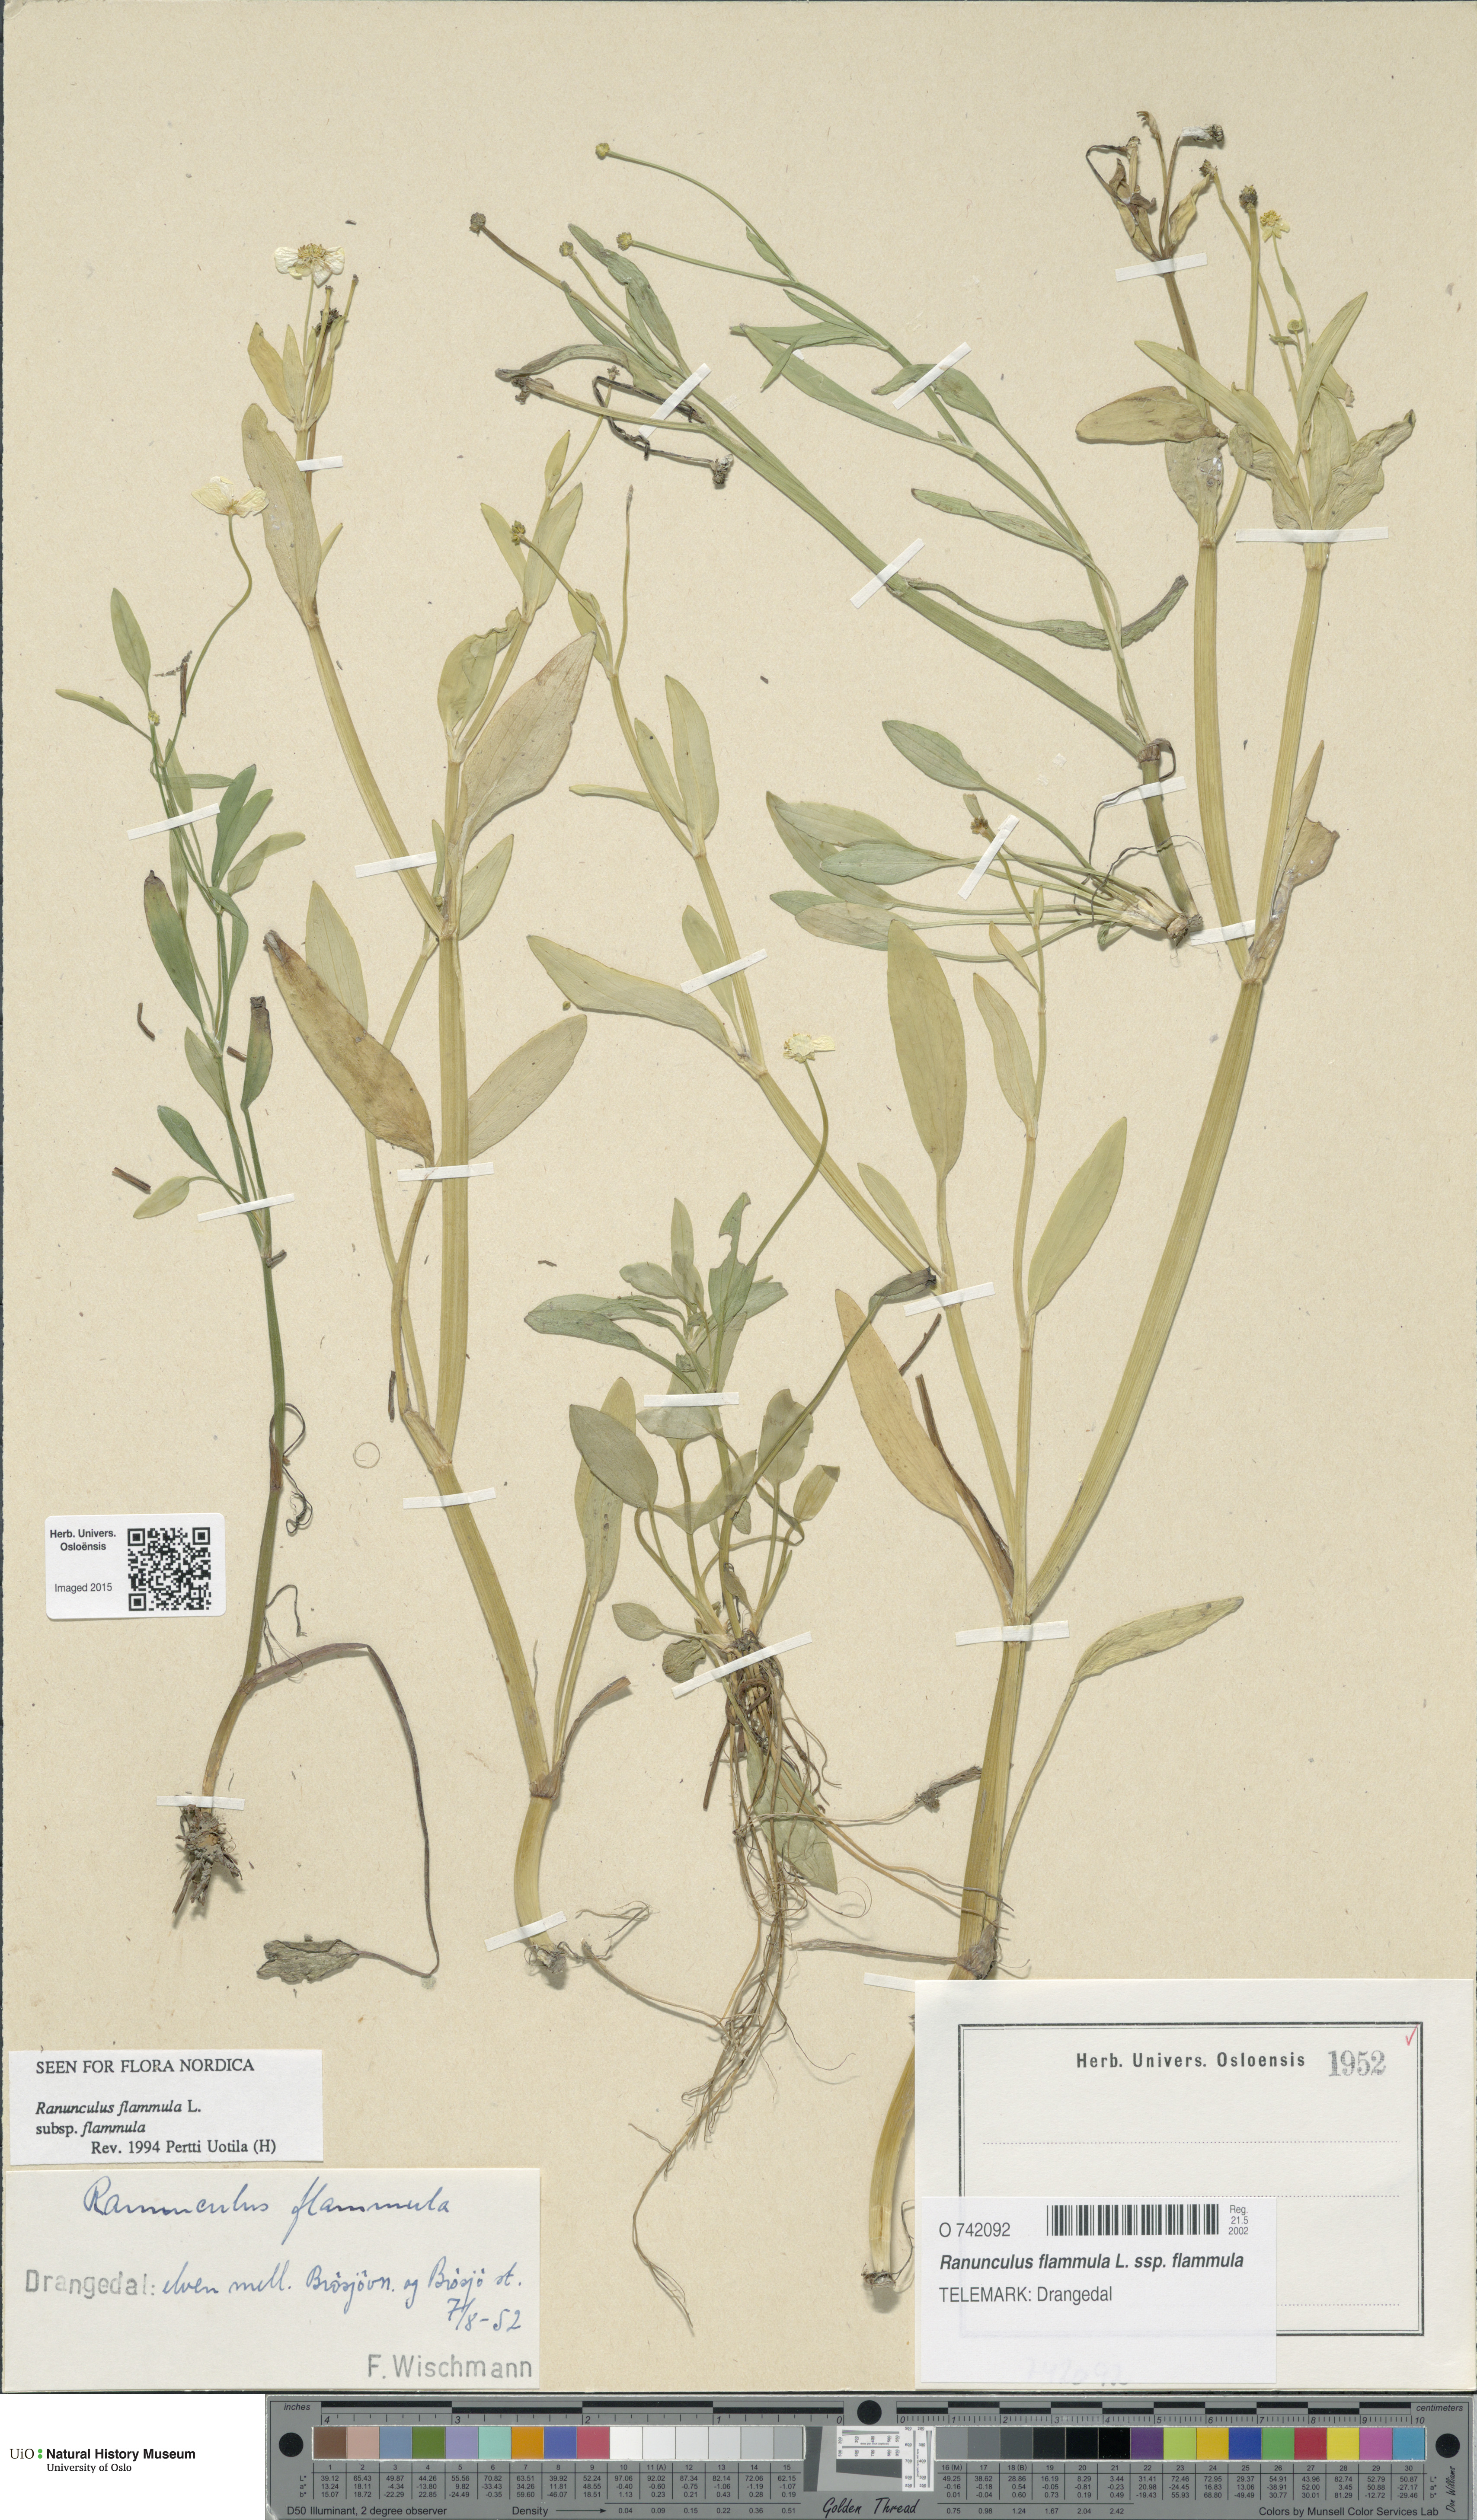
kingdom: Plantae
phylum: Tracheophyta
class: Magnoliopsida
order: Ranunculales
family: Ranunculaceae
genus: Ranunculus
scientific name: Ranunculus flammula
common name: Lesser spearwort
